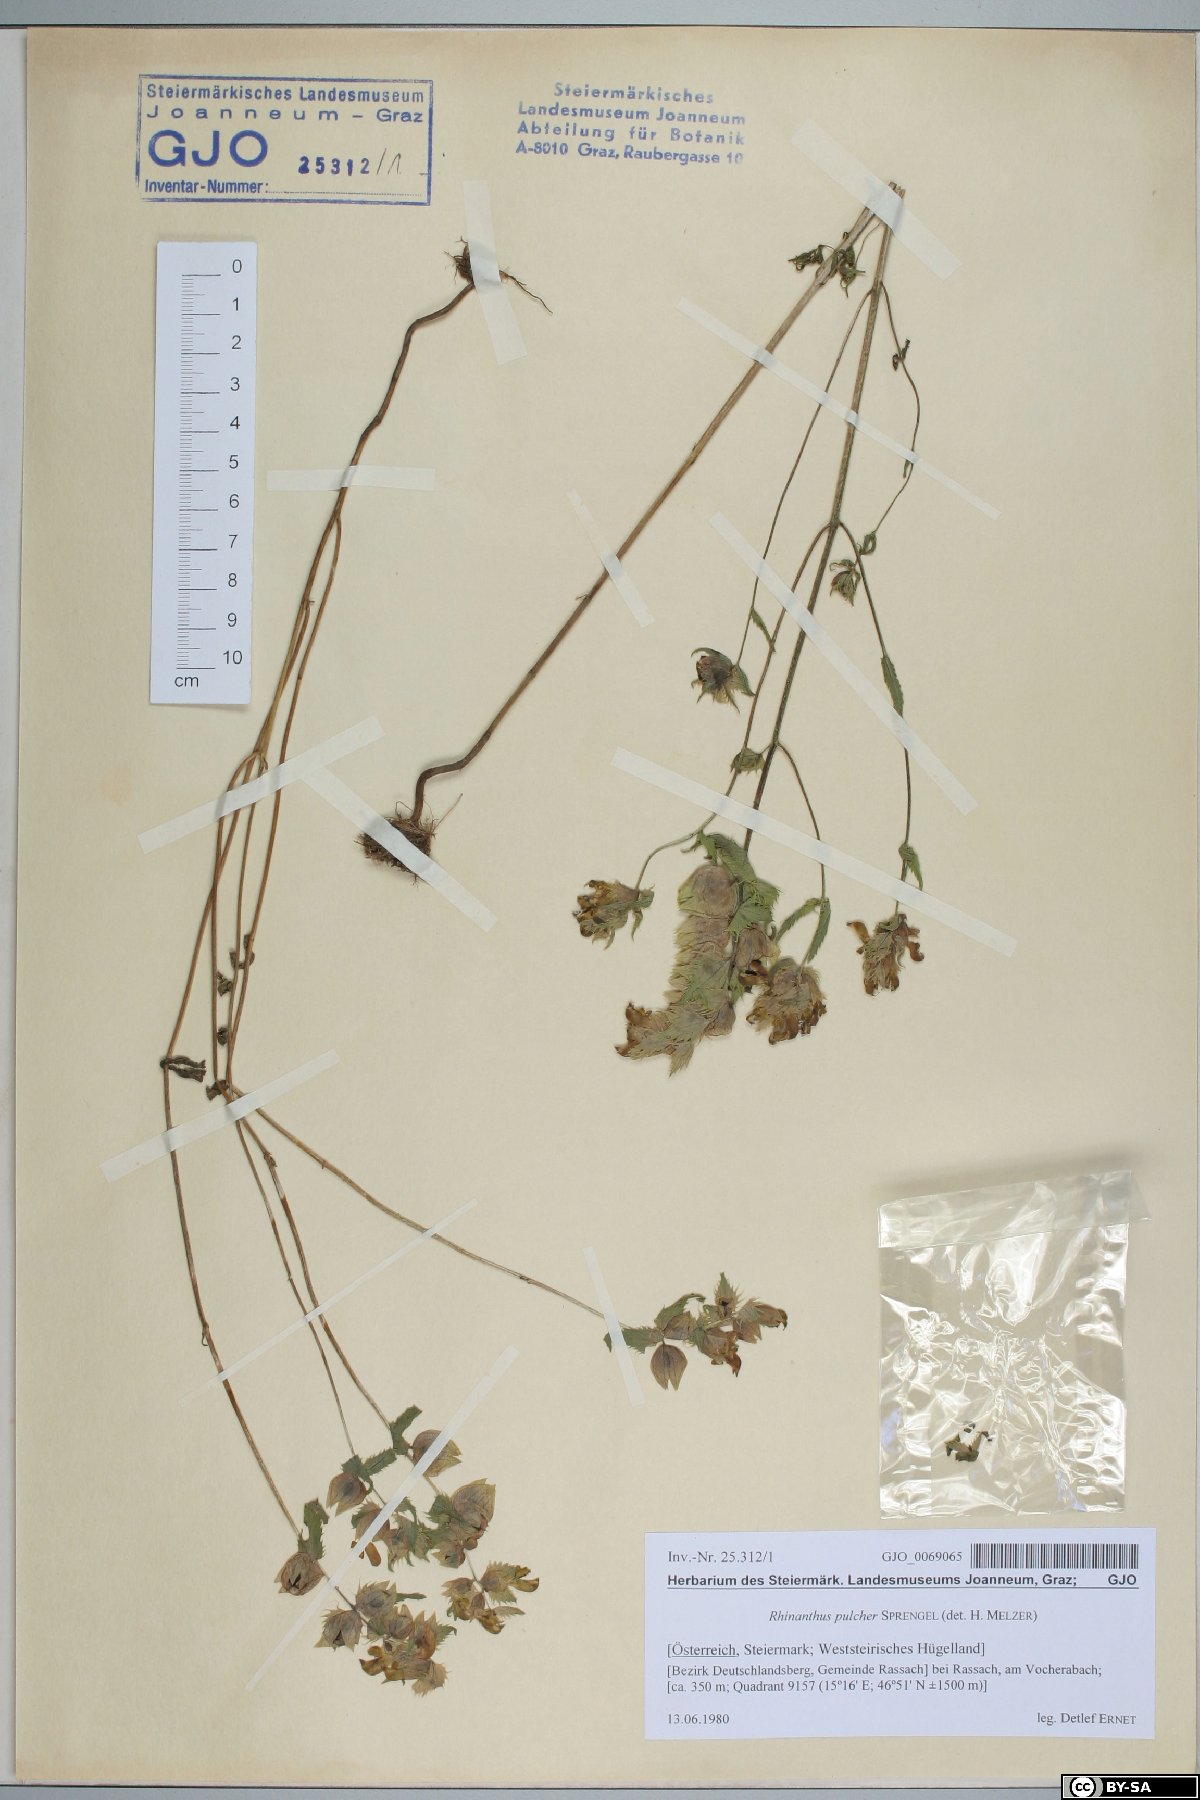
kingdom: Plantae
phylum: Tracheophyta
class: Magnoliopsida
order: Lamiales
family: Orobanchaceae
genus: Rhinanthus
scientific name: Rhinanthus riphaeus
